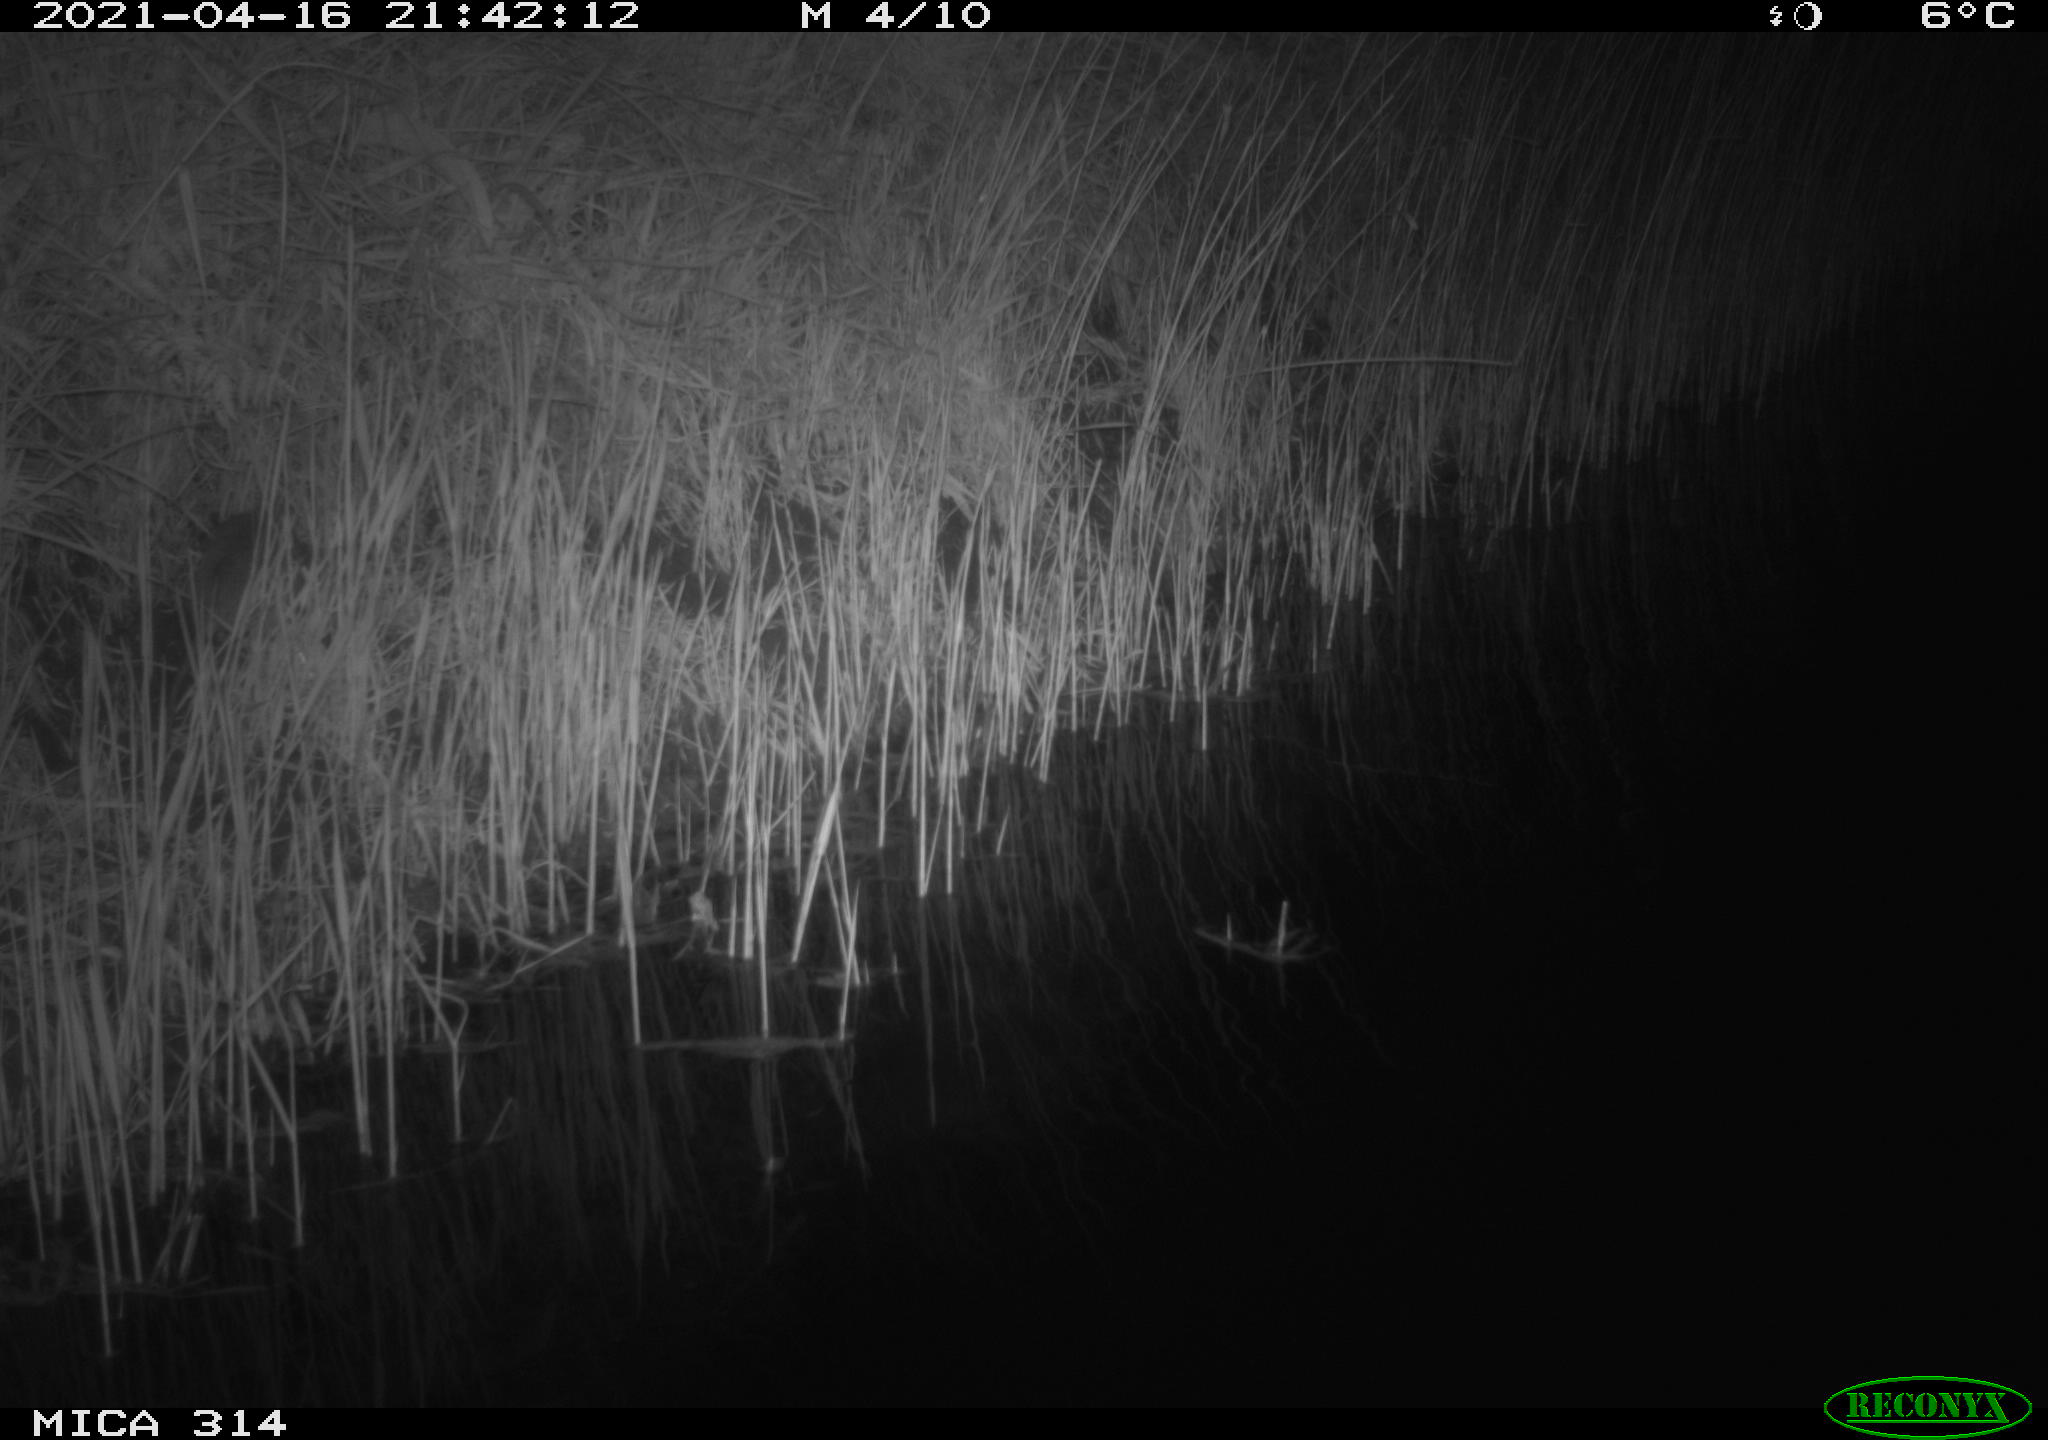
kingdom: Animalia
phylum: Chordata
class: Mammalia
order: Rodentia
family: Muridae
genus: Rattus
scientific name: Rattus norvegicus
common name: Brown rat
